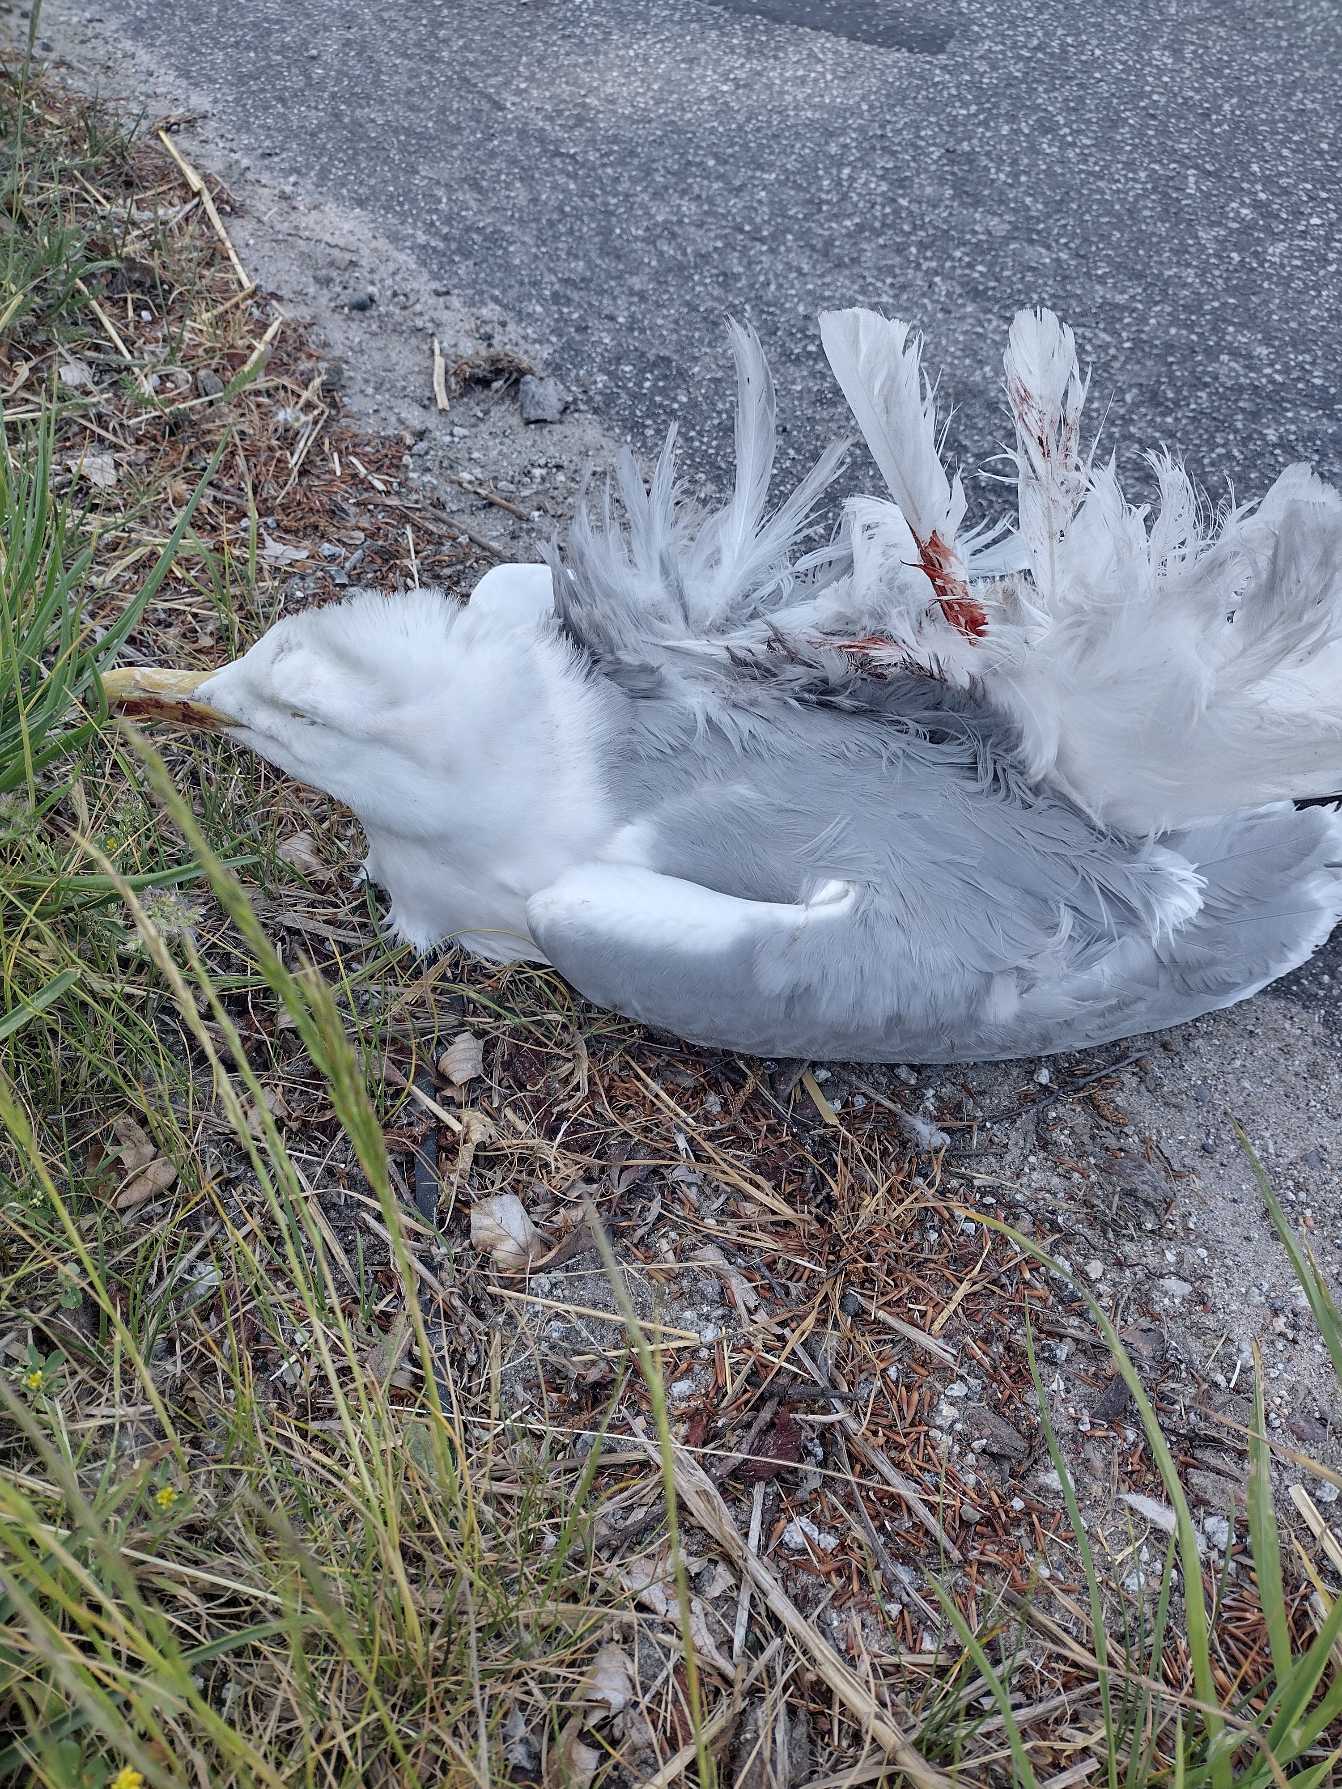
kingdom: Animalia
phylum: Chordata
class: Aves
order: Charadriiformes
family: Laridae
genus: Larus
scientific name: Larus argentatus
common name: Sølvmåge
